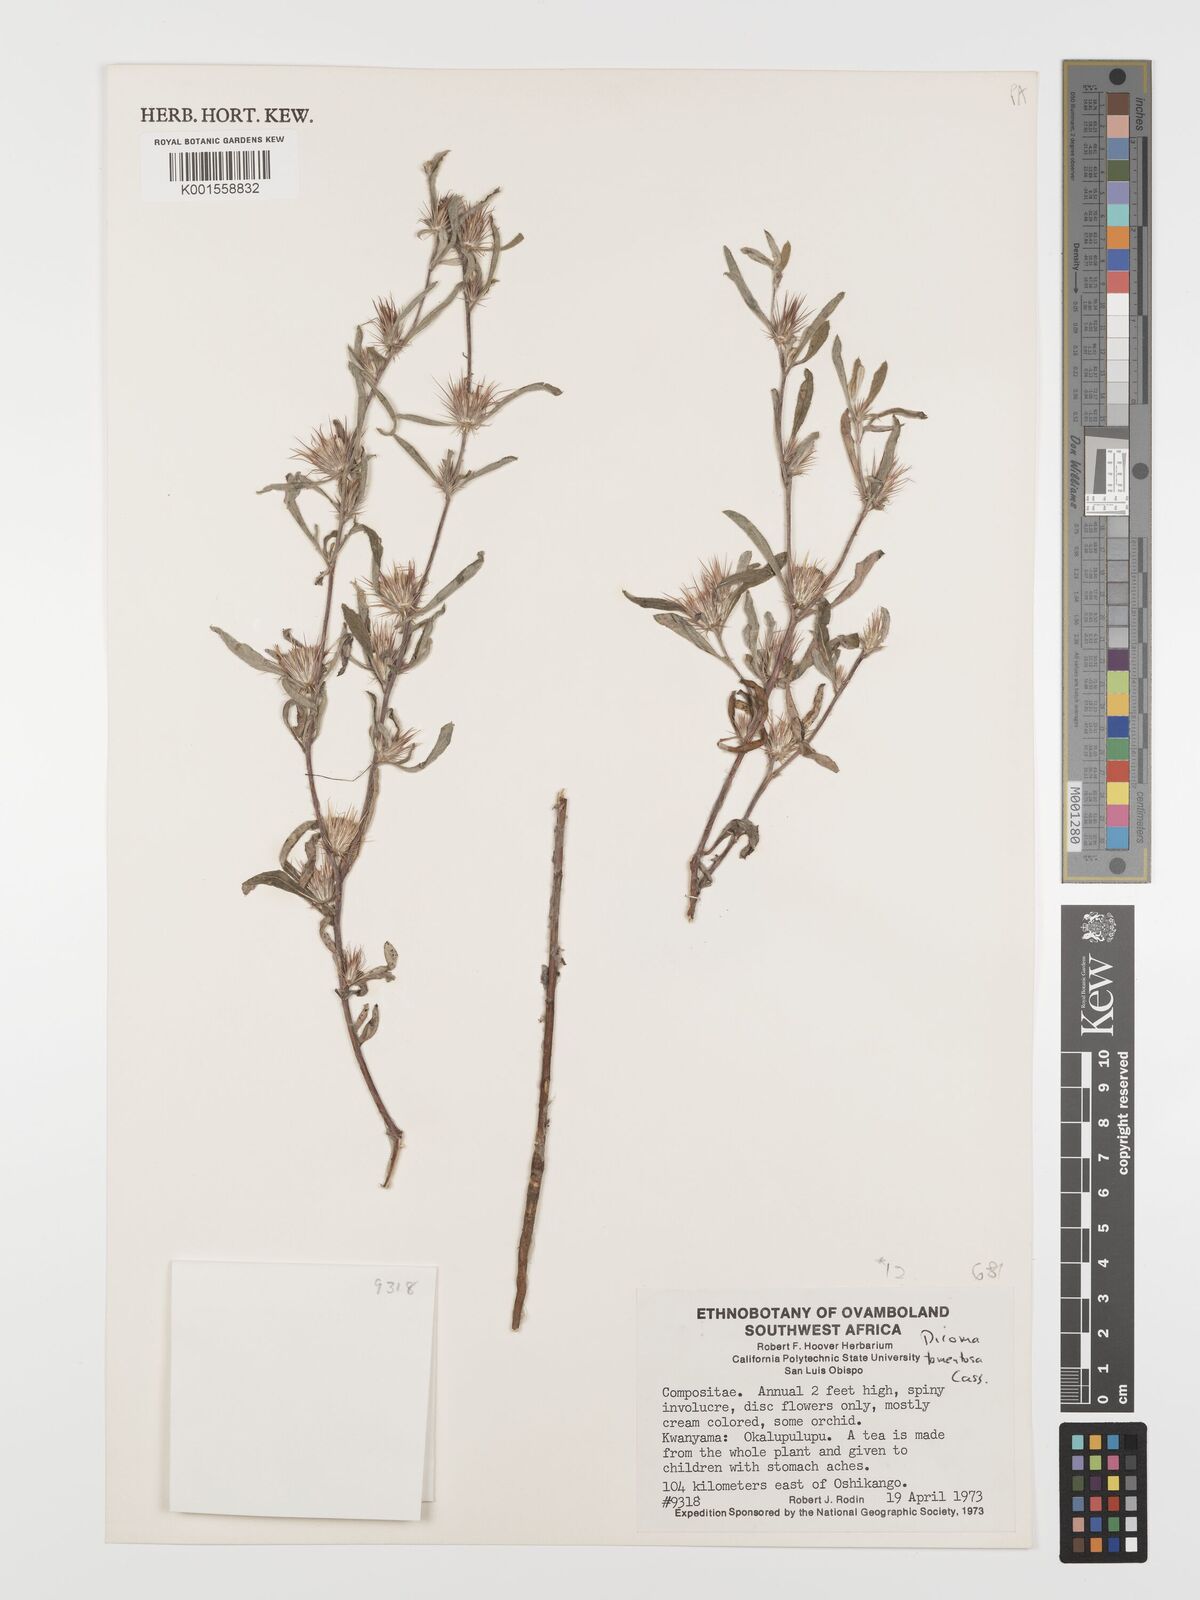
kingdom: Plantae
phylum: Tracheophyta
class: Magnoliopsida
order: Asterales
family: Asteraceae
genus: Dicoma
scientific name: Dicoma tomentosa
